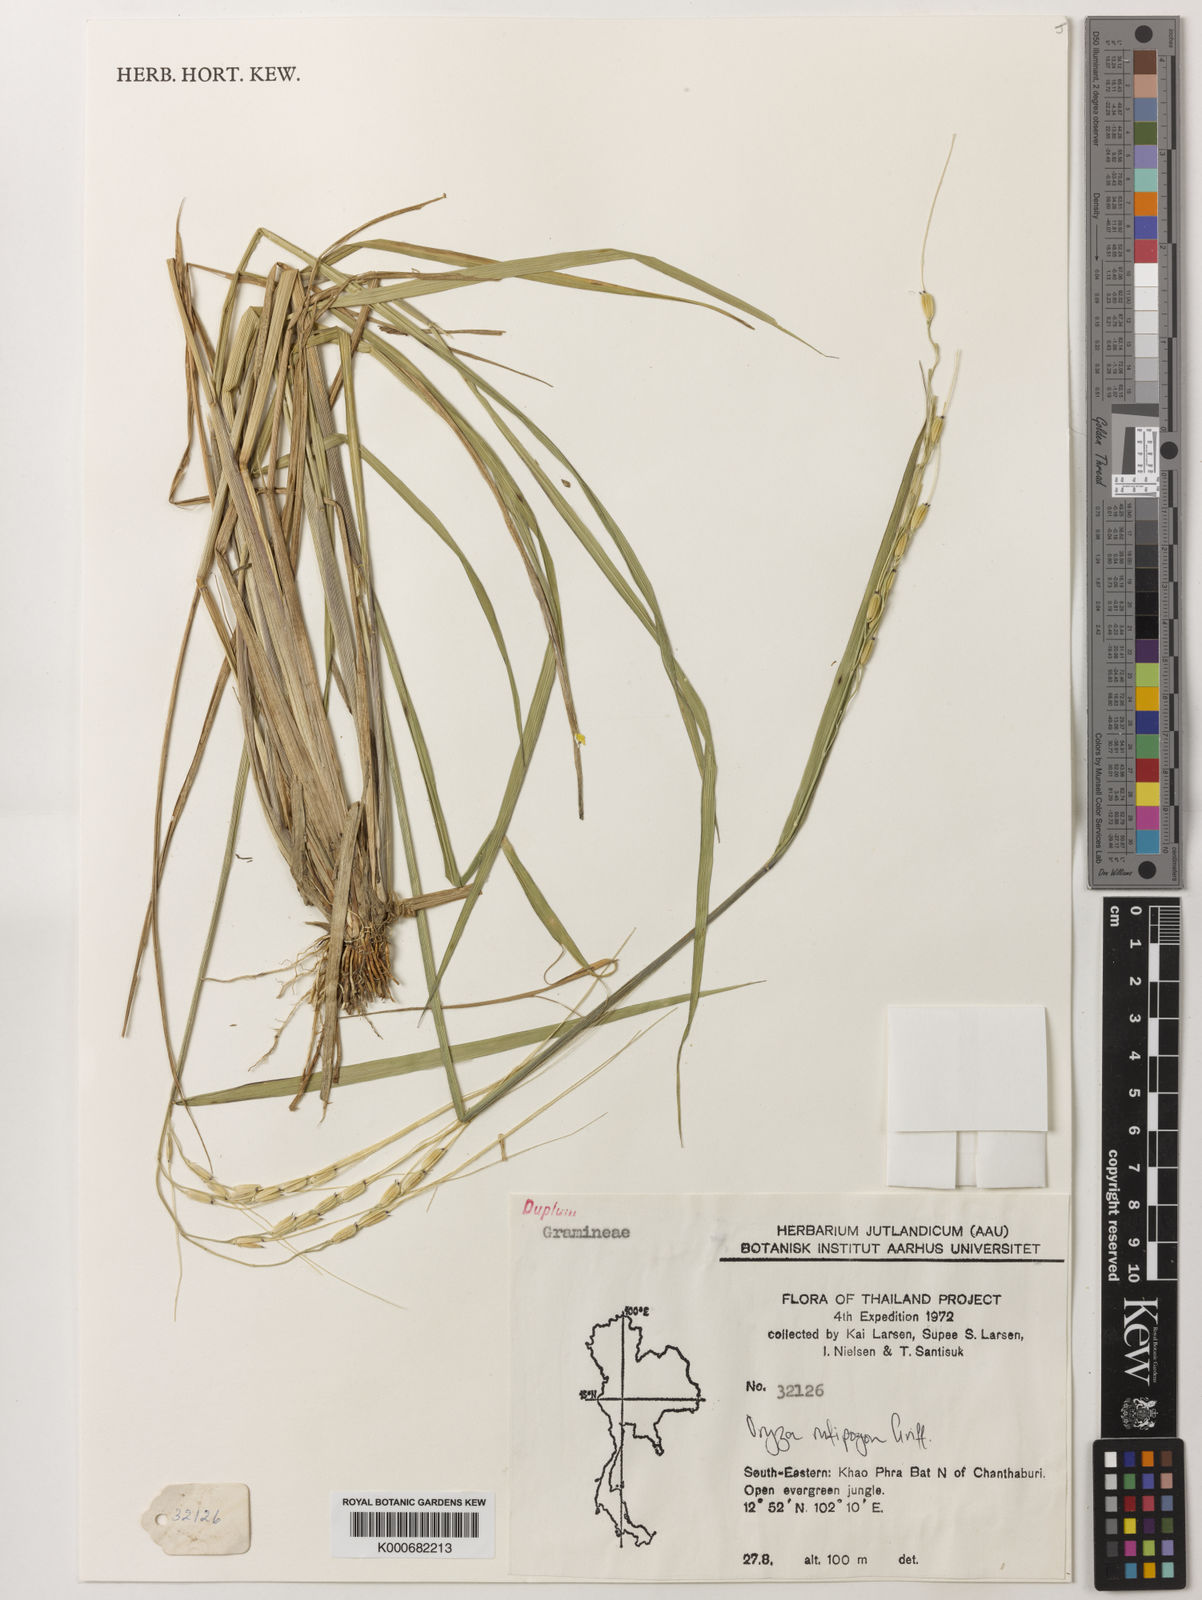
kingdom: Plantae
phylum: Tracheophyta
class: Liliopsida
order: Poales
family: Poaceae
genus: Oryza
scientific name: Oryza rufipogon
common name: Red rice
